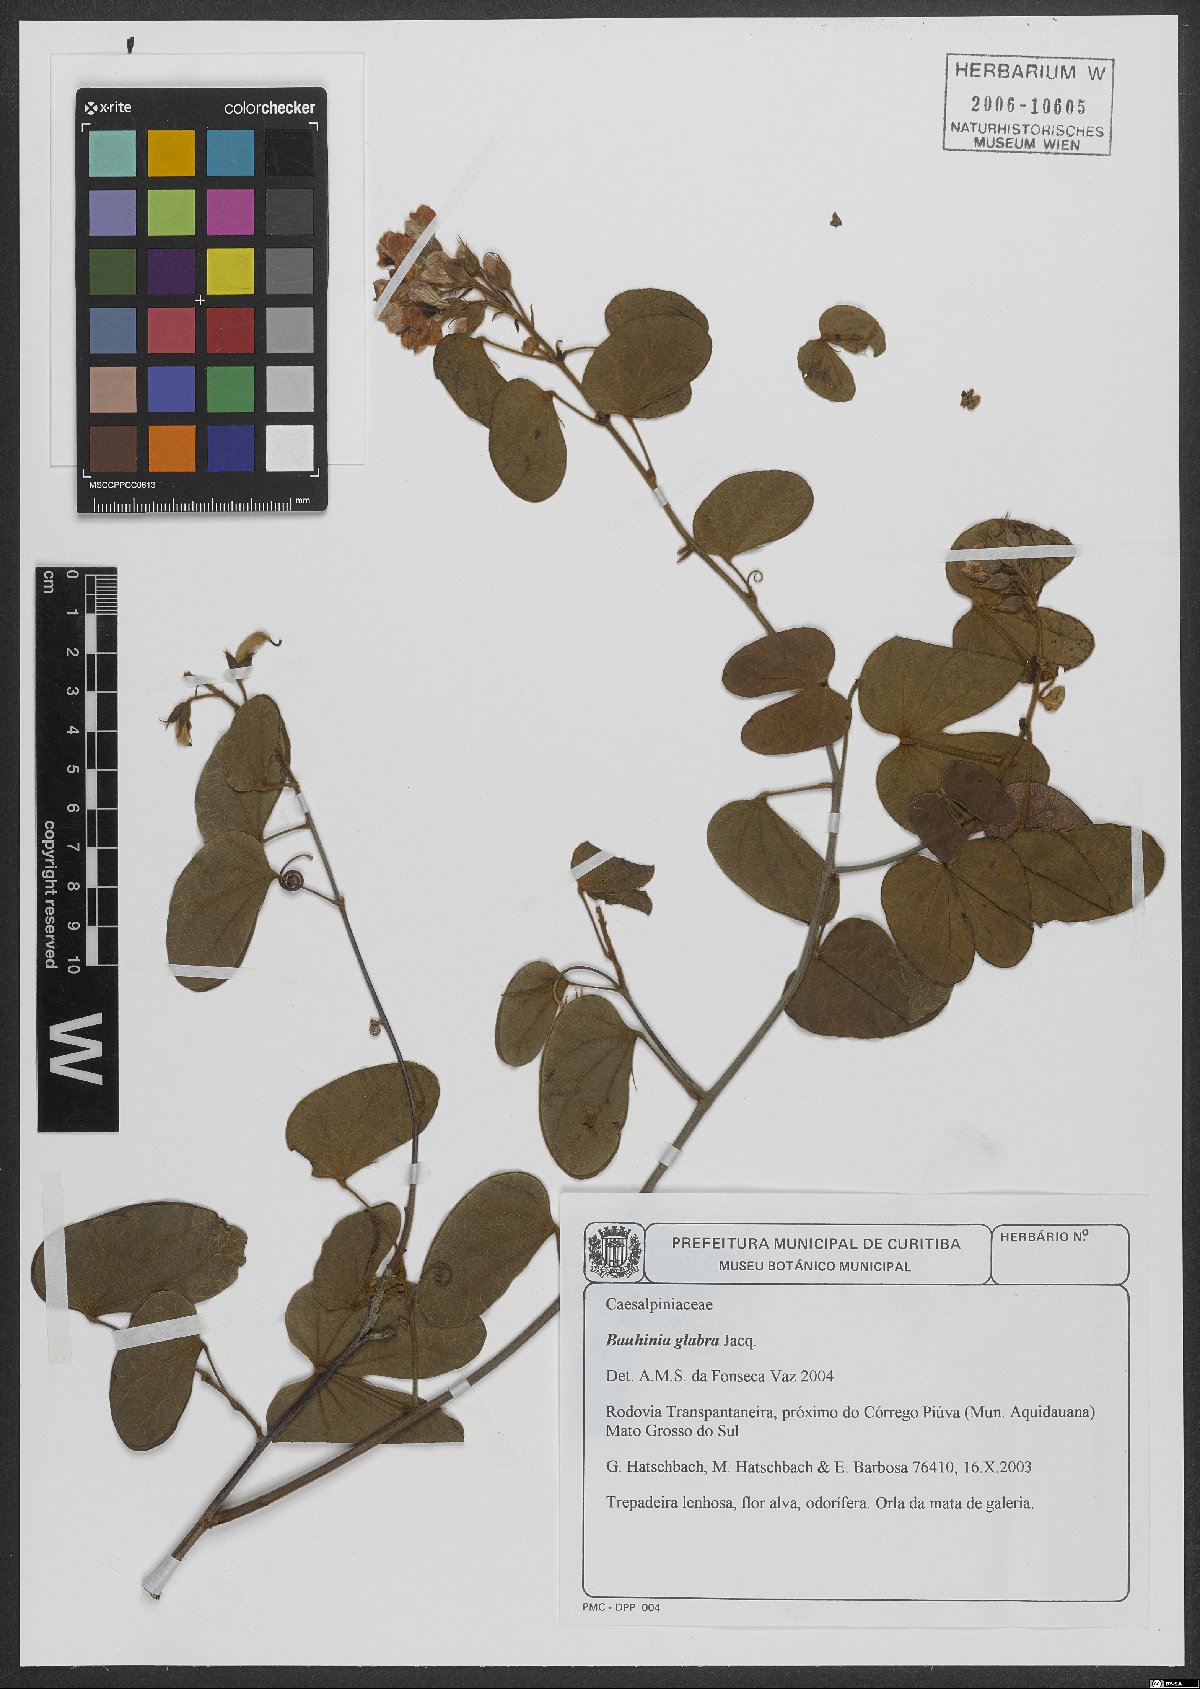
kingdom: Plantae
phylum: Tracheophyta
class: Magnoliopsida
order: Fabales
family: Fabaceae
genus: Schnella
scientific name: Schnella glabra
